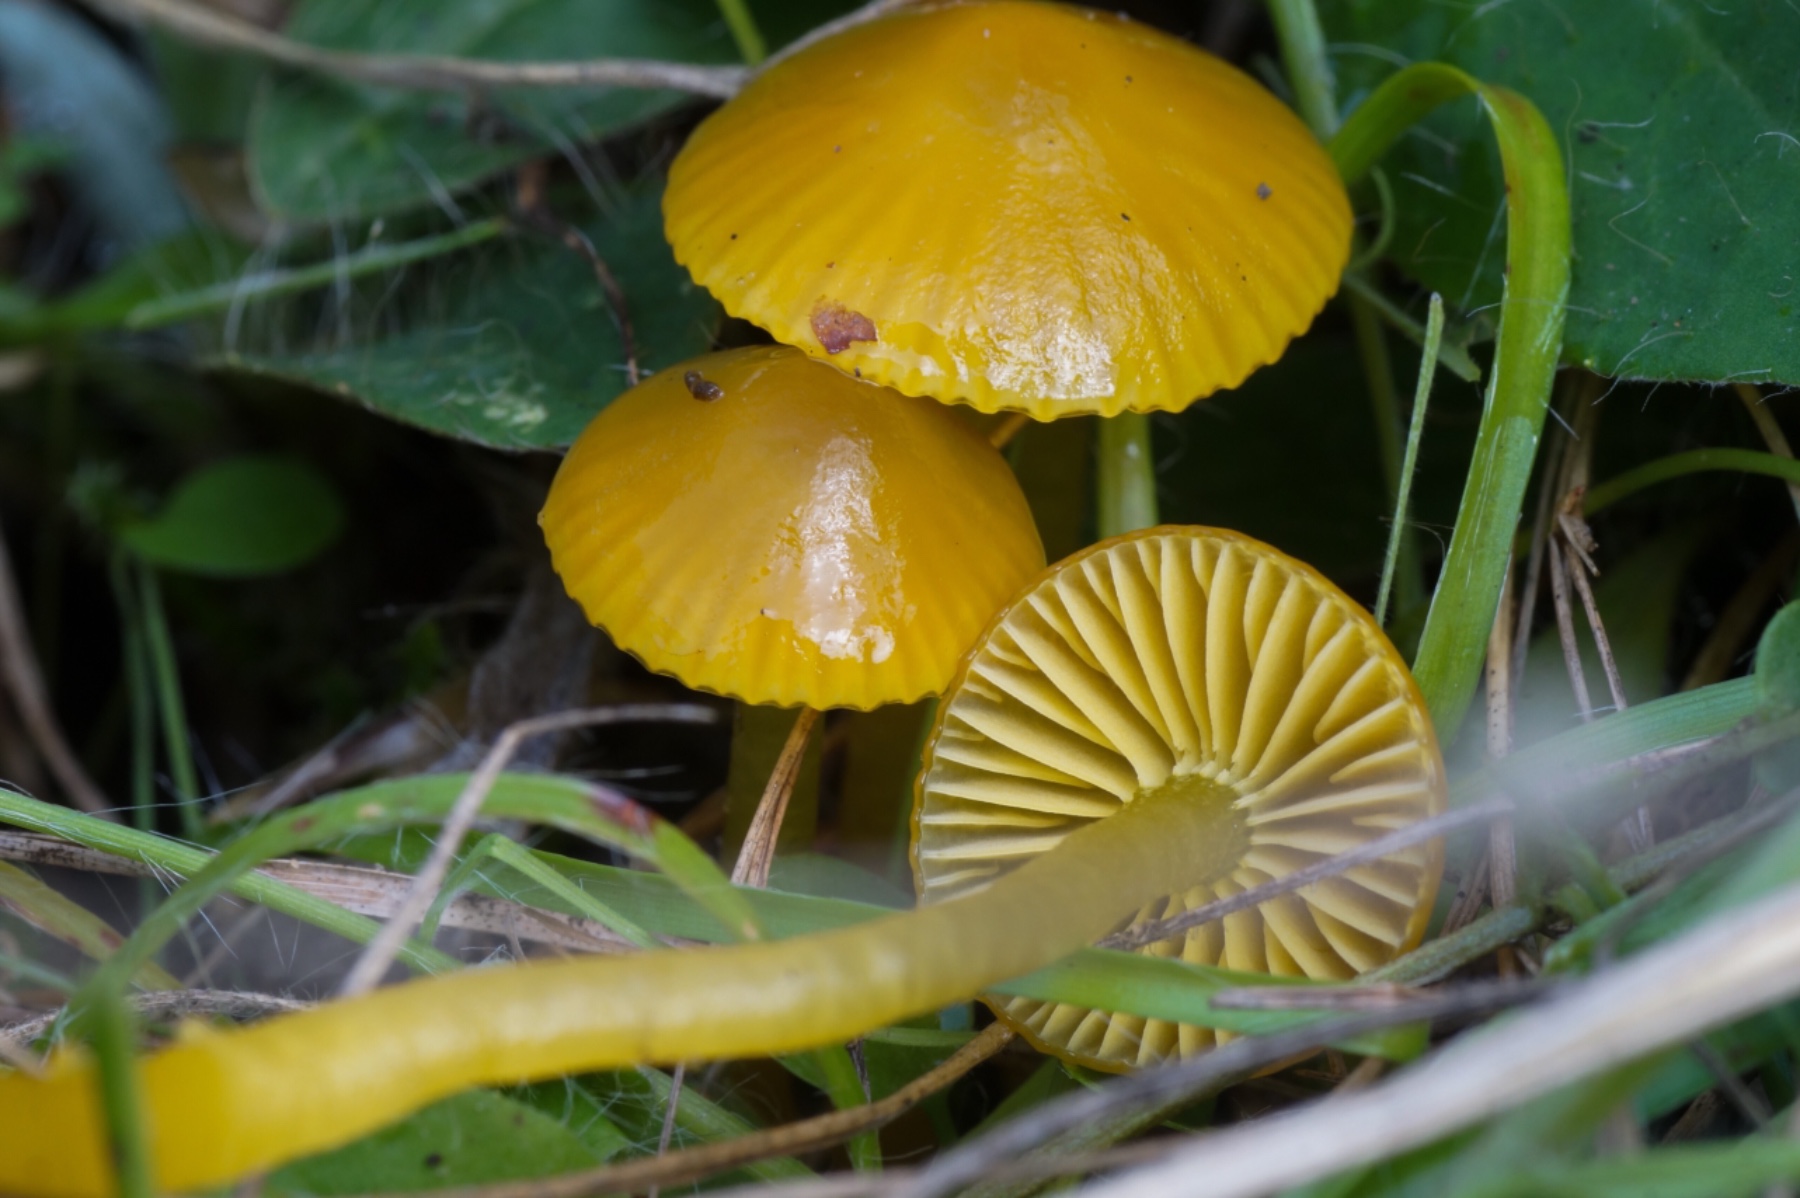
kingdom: Fungi
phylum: Basidiomycota
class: Agaricomycetes
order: Agaricales
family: Hygrophoraceae
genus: Gliophorus
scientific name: Gliophorus psittacinus
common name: papegøje-vokshat
